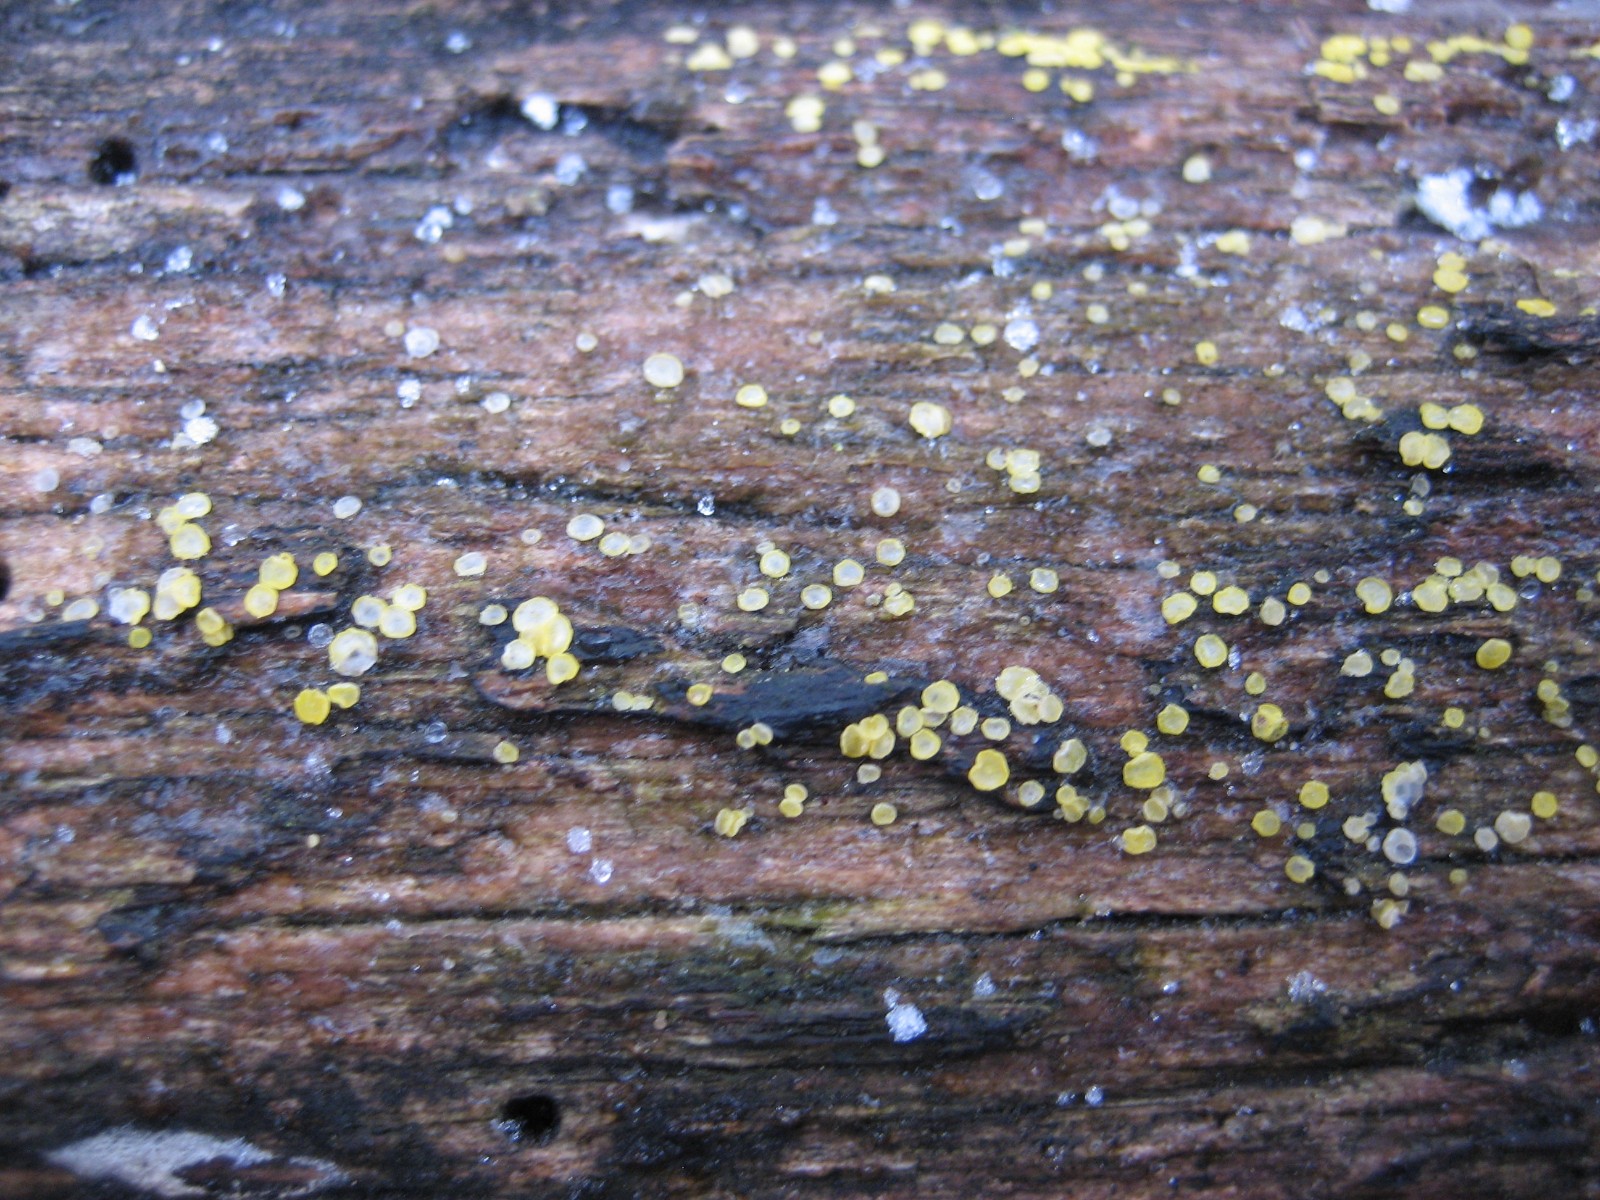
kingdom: Fungi
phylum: Ascomycota
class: Leotiomycetes
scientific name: Leotiomycetes
